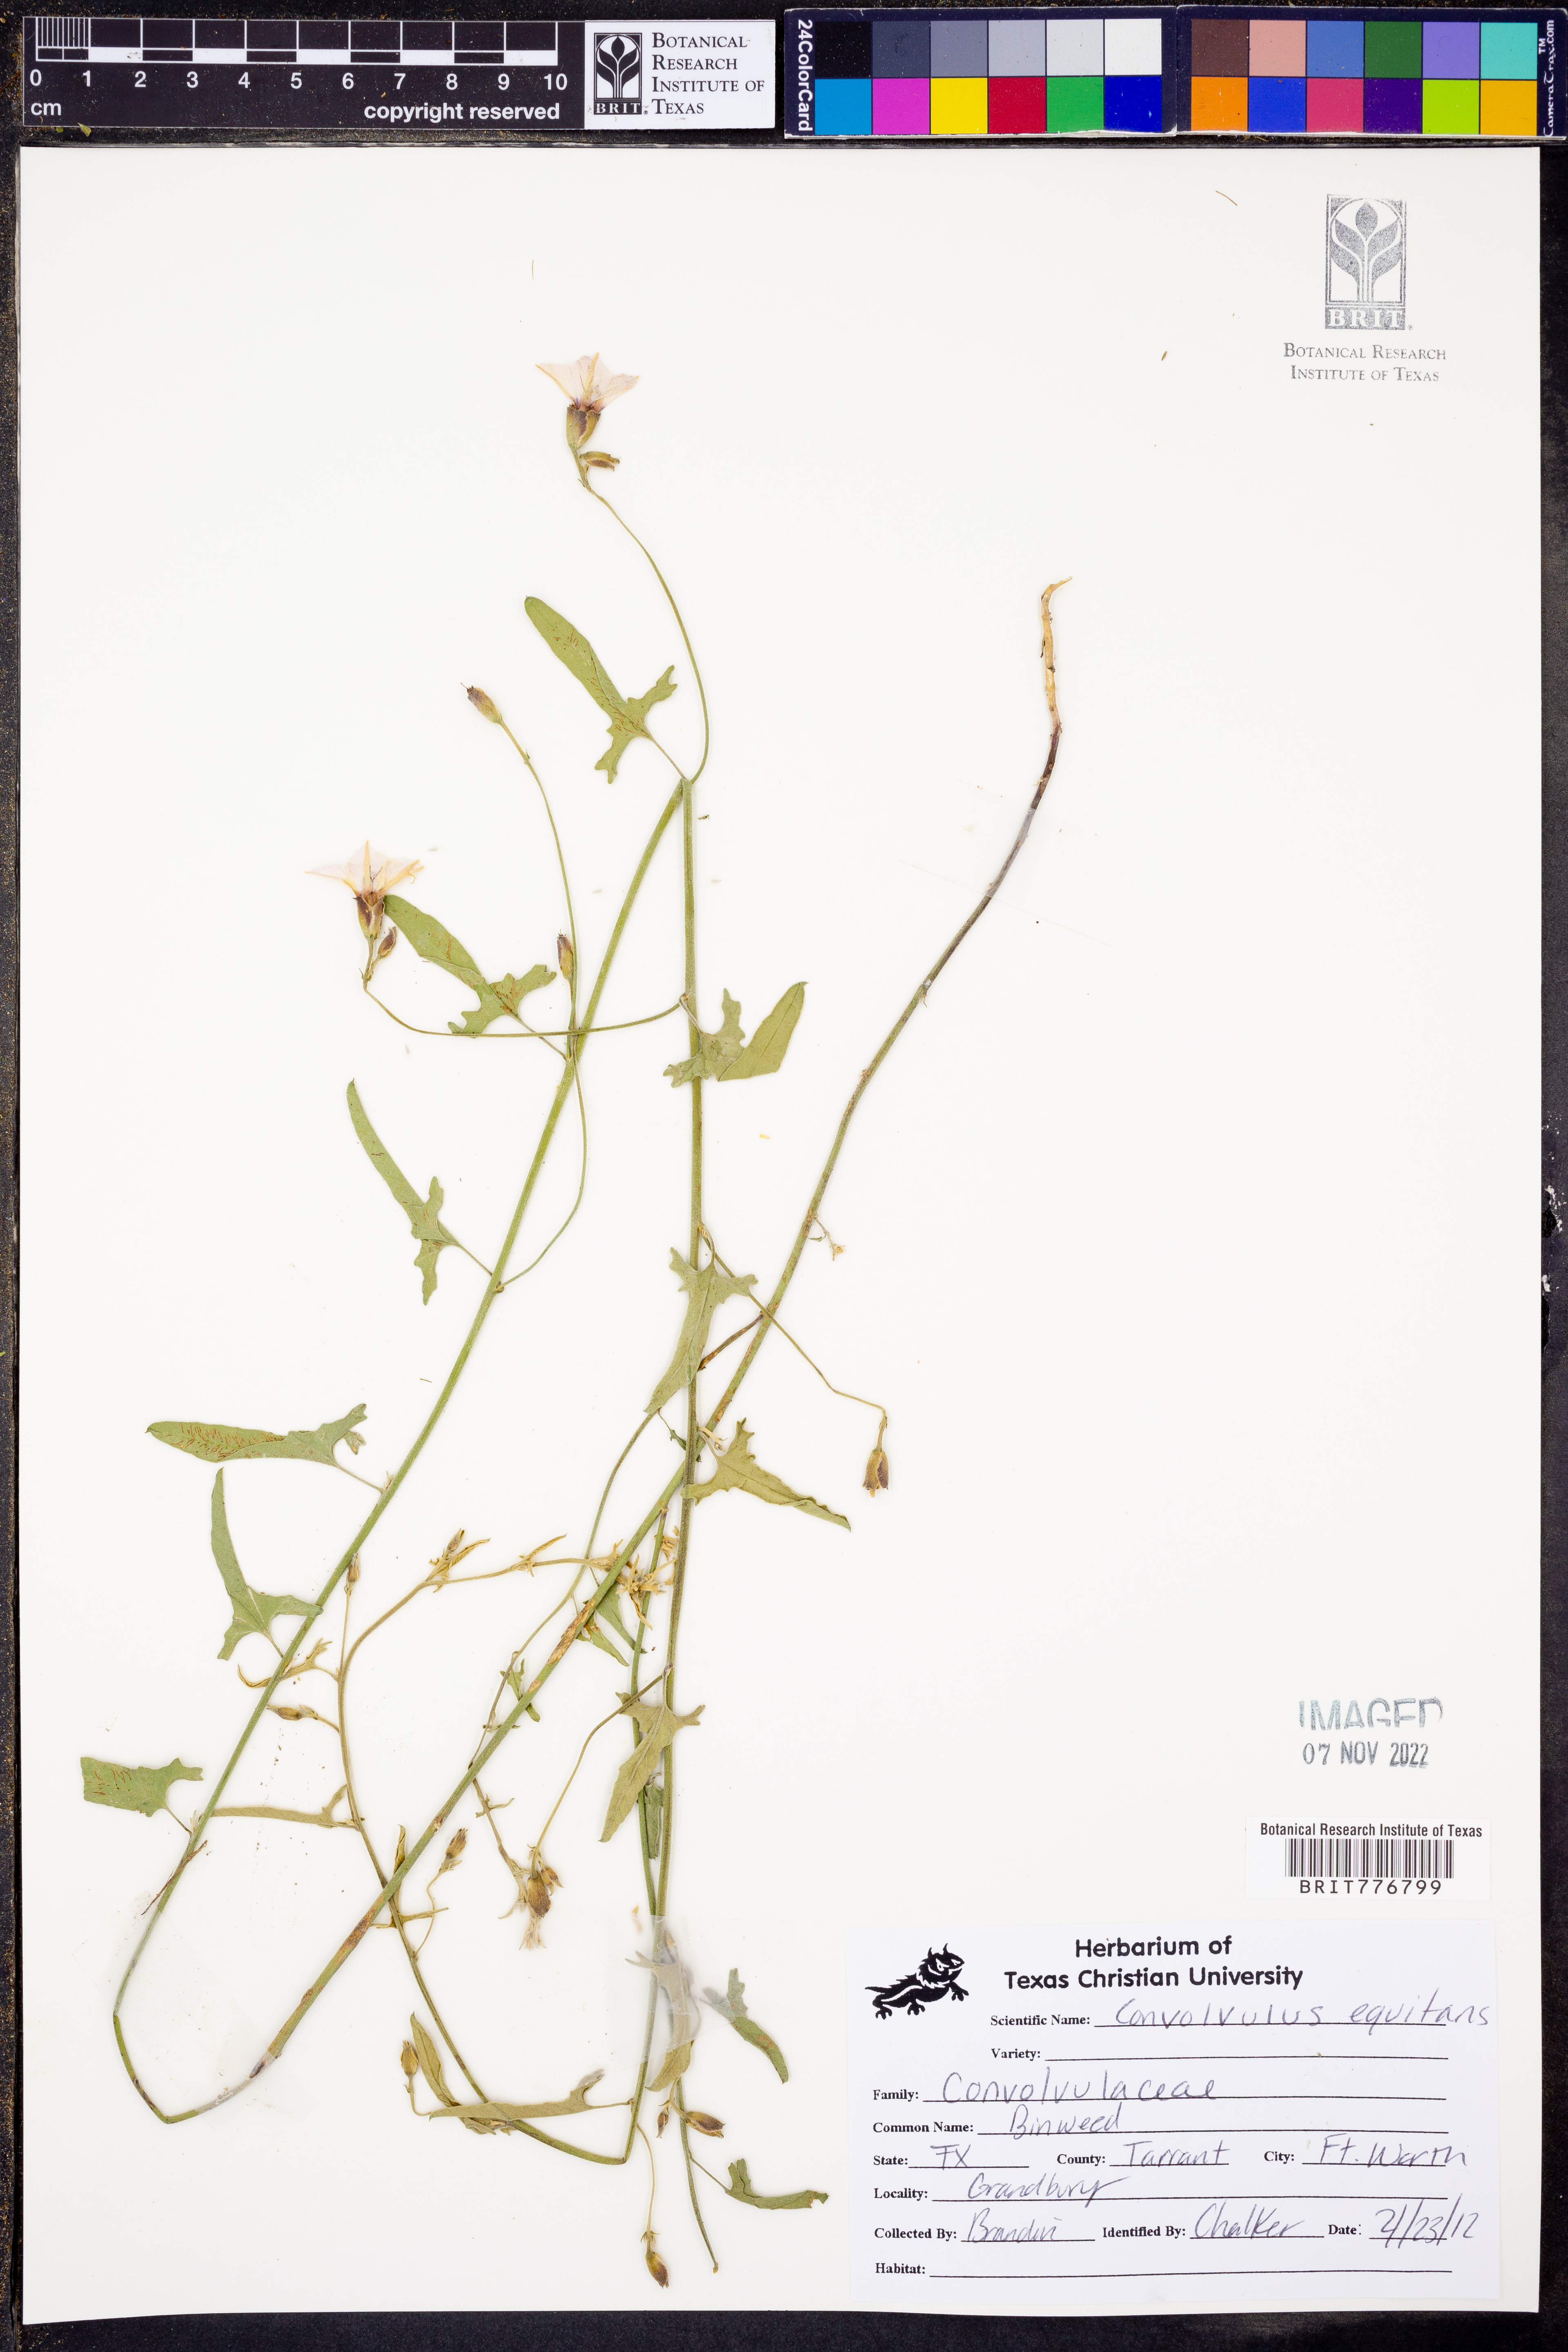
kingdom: Plantae
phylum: Tracheophyta
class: Magnoliopsida
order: Solanales
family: Convolvulaceae
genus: Convolvulus
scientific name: Convolvulus equitans
